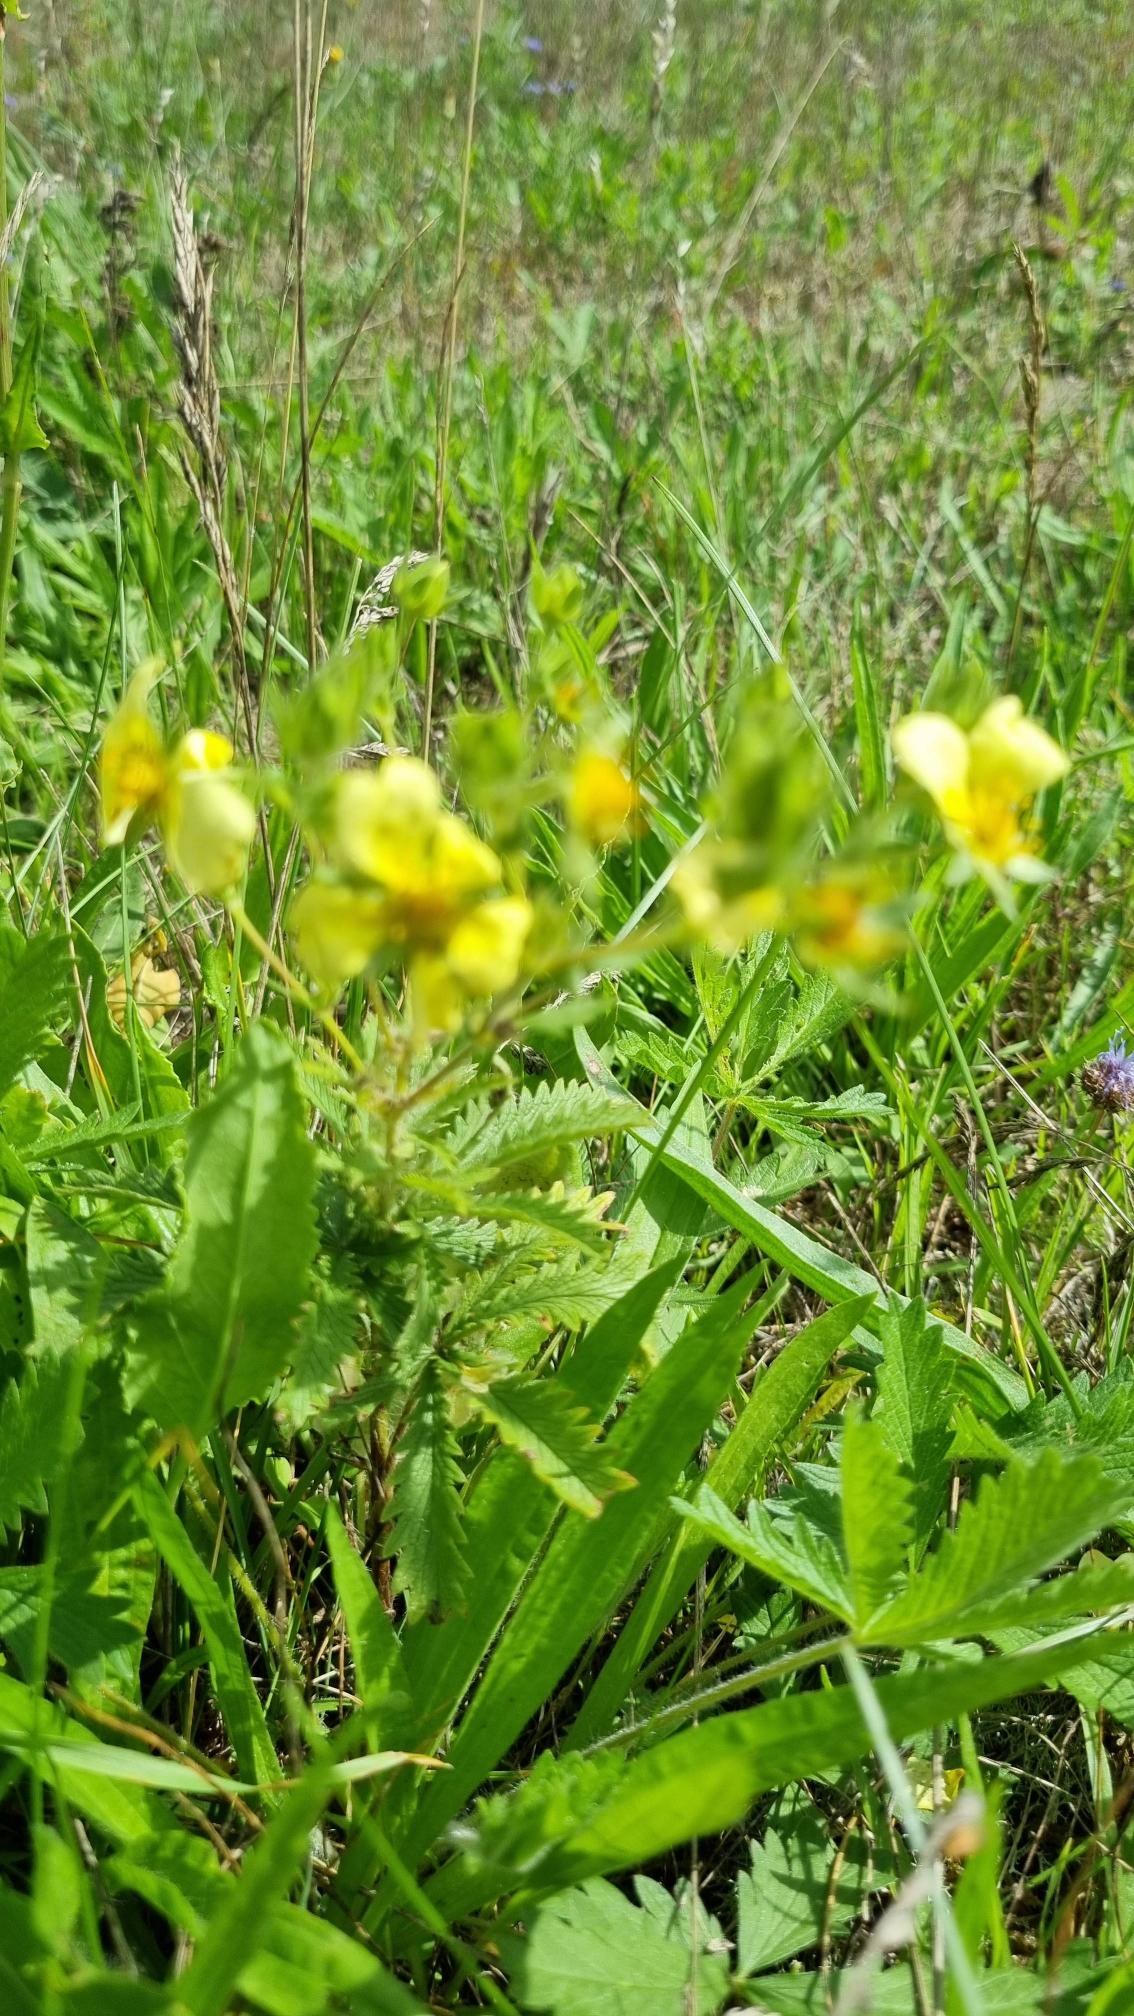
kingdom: Plantae
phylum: Tracheophyta
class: Magnoliopsida
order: Rosales
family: Rosaceae
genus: Potentilla
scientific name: Potentilla recta
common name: Rank potentil
